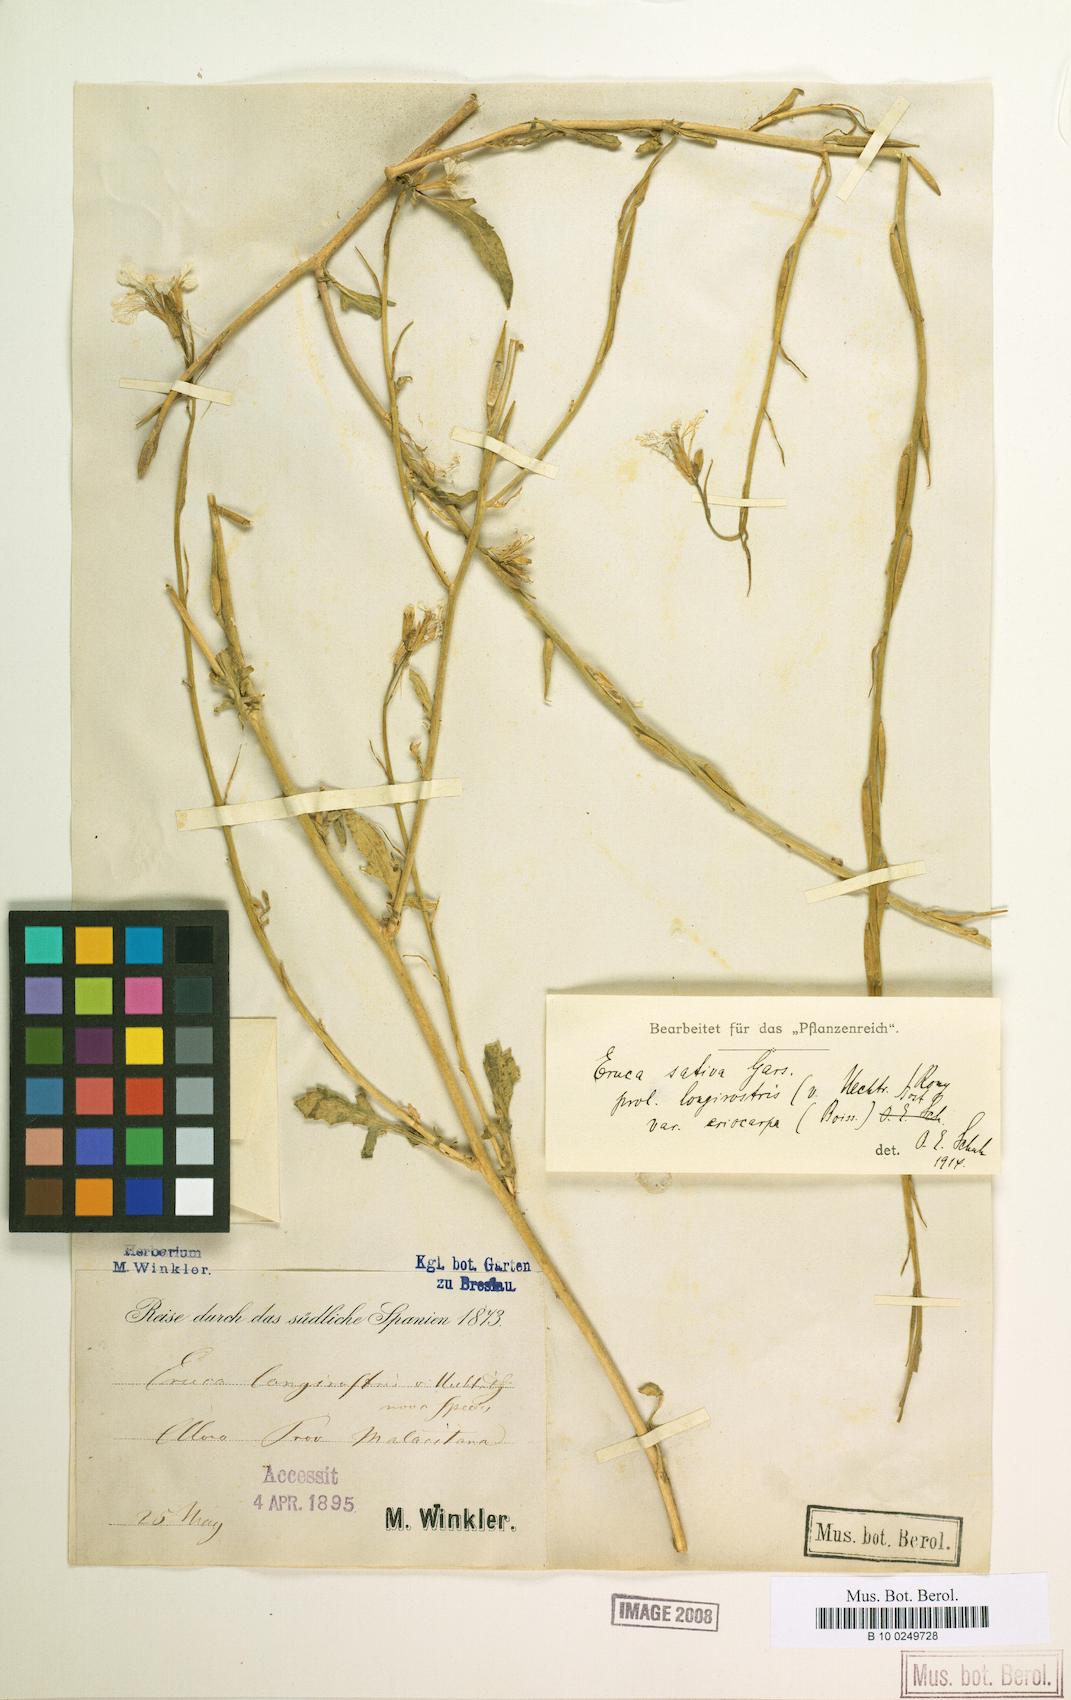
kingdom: Plantae
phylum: Tracheophyta
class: Magnoliopsida
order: Brassicales
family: Brassicaceae
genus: Eruca
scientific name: Eruca vesicaria
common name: Garden rocket
